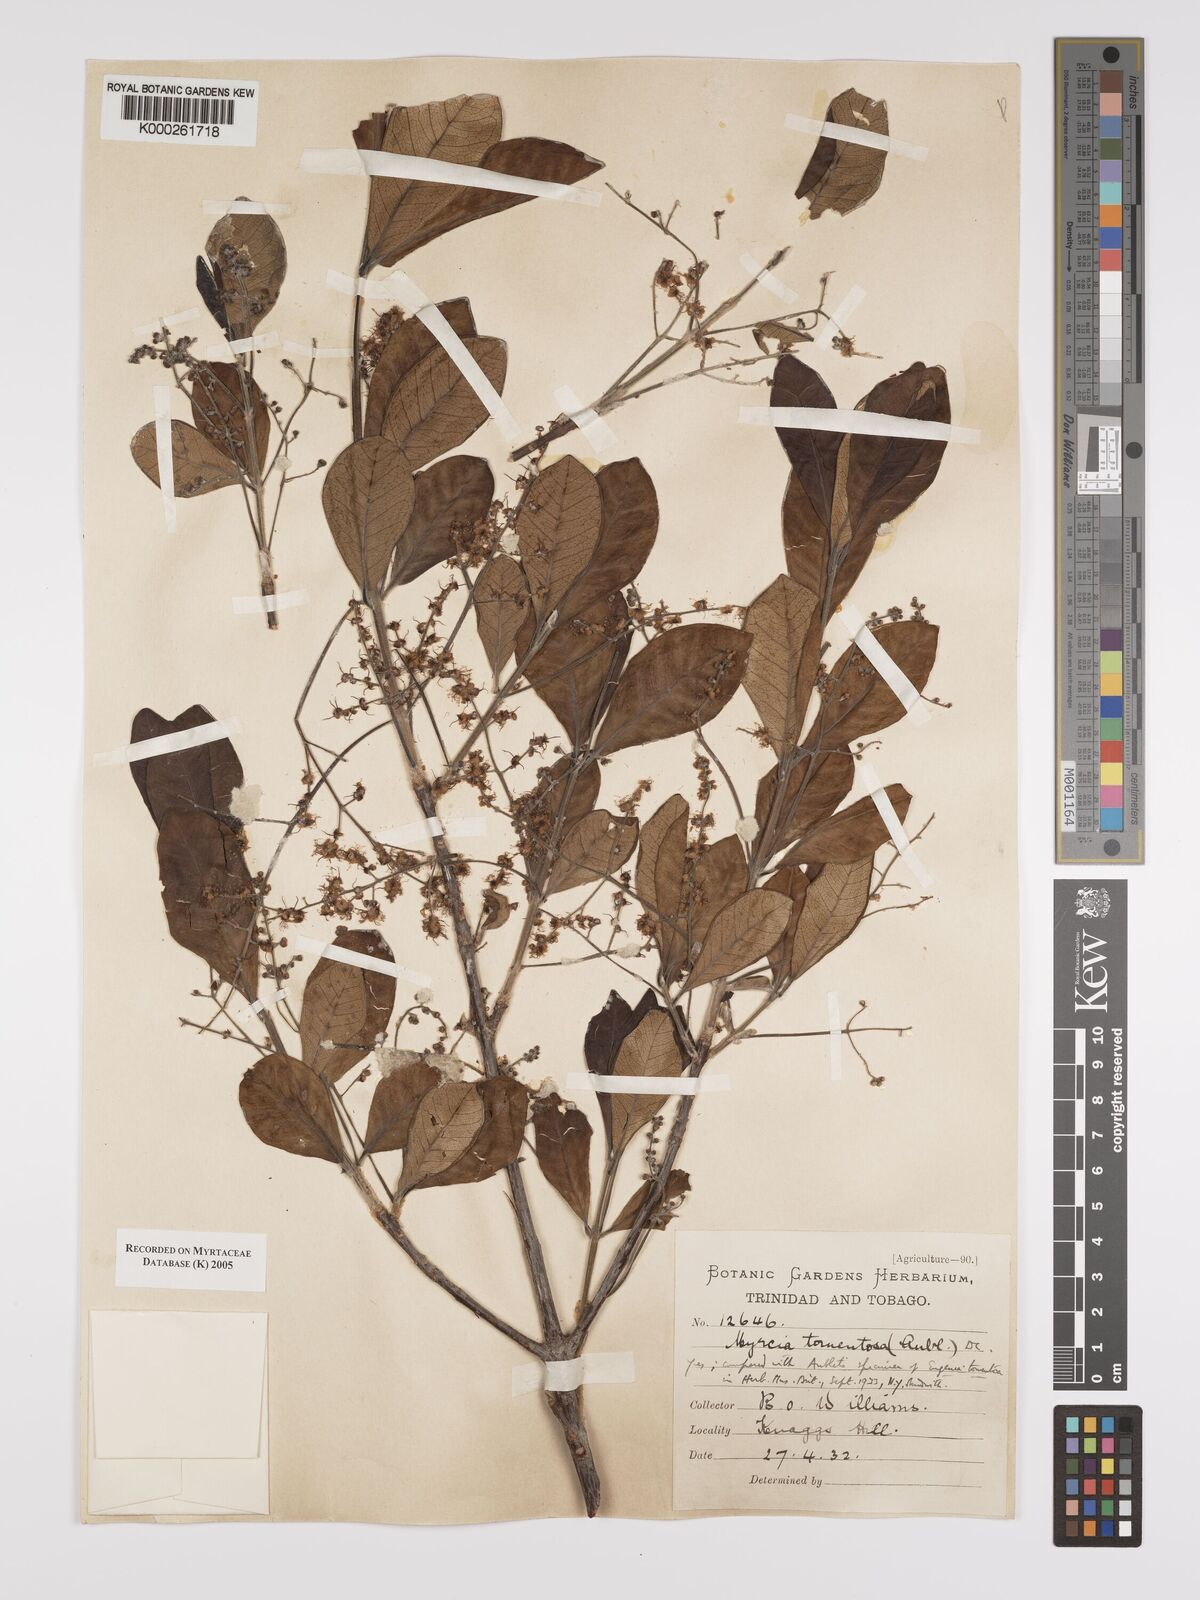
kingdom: Plantae
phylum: Tracheophyta
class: Magnoliopsida
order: Myrtales
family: Myrtaceae
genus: Myrcia
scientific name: Myrcia tomentosa
